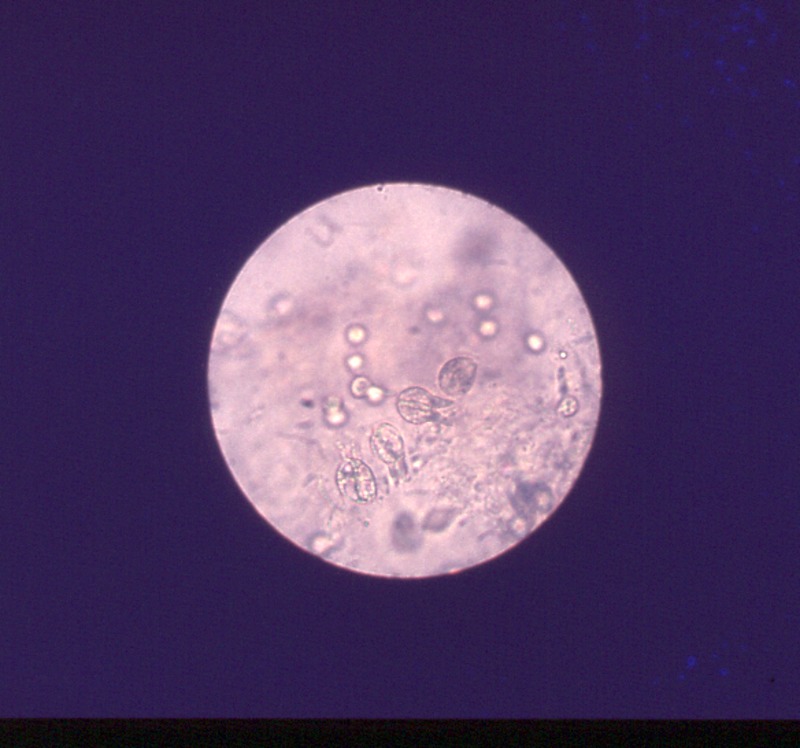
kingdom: Plantae
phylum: Tracheophyta
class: Magnoliopsida
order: Rosales
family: Rosaceae
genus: Prunus
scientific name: Prunus serotina
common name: Black cherry
